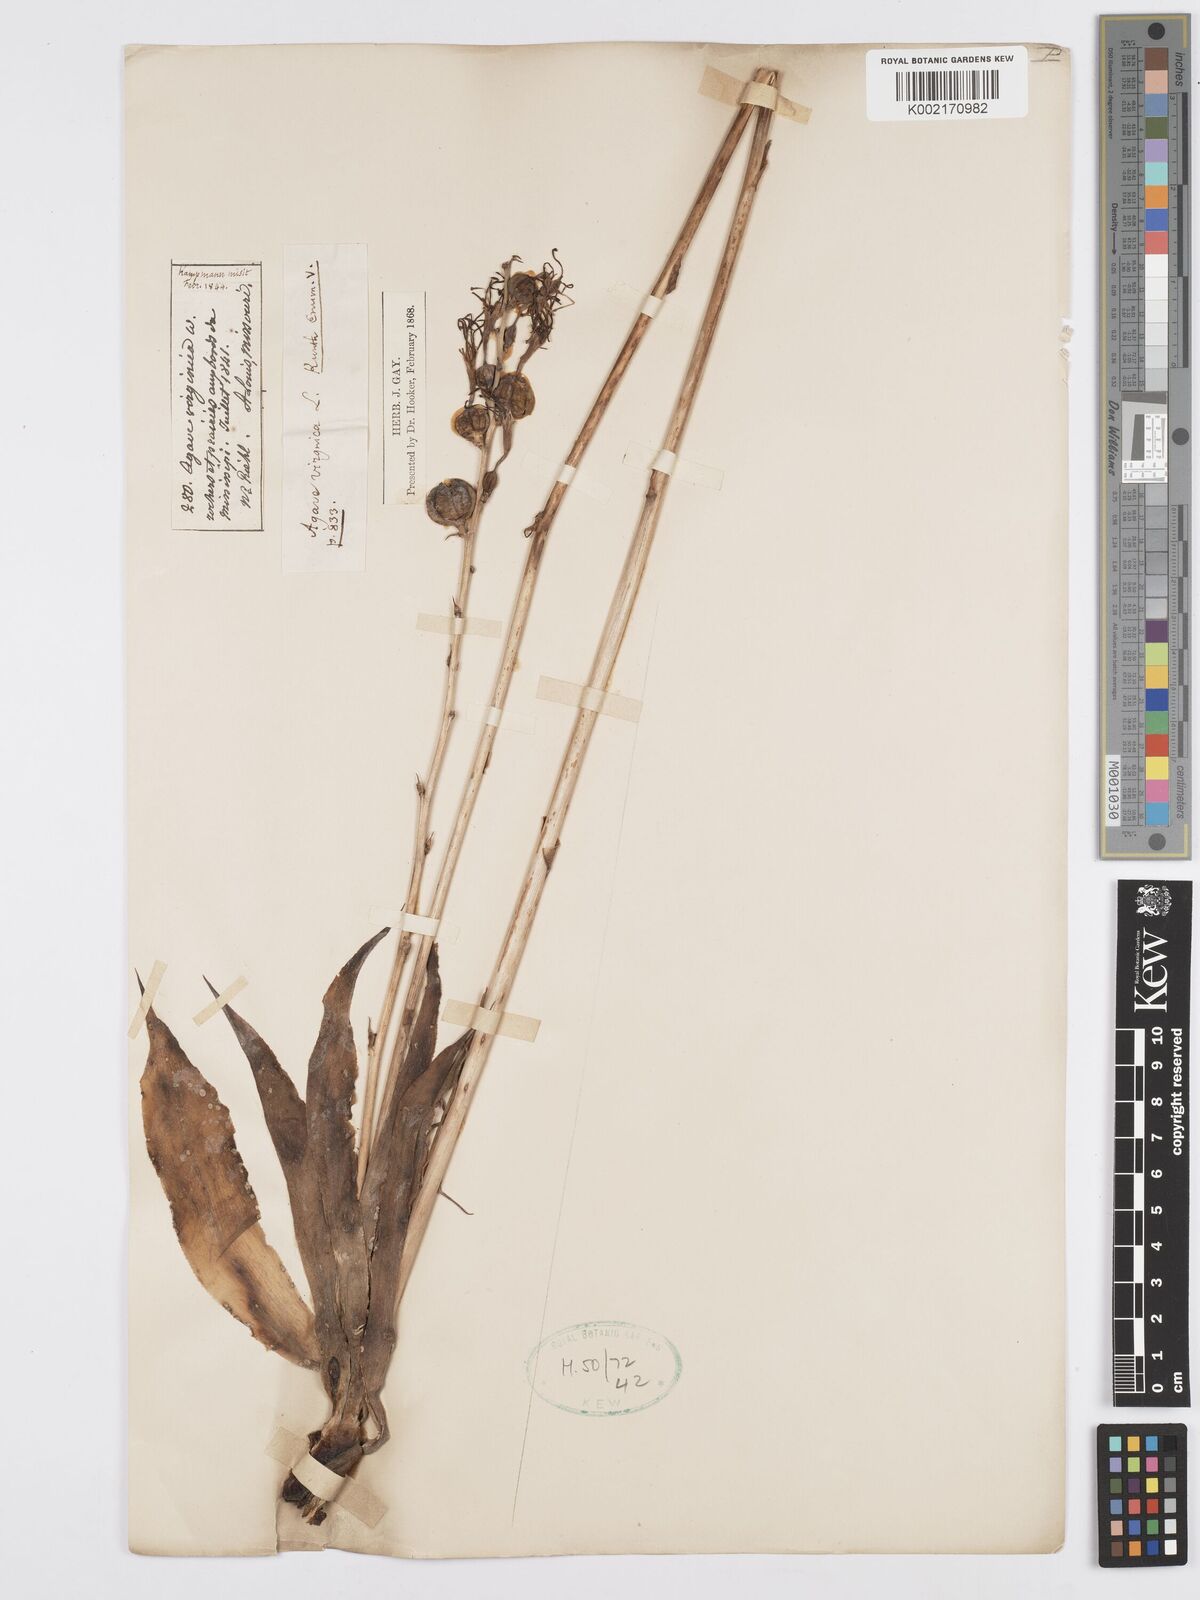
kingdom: Plantae
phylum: Tracheophyta
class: Liliopsida
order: Asparagales
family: Asparagaceae
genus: Agave
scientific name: Agave virginica
